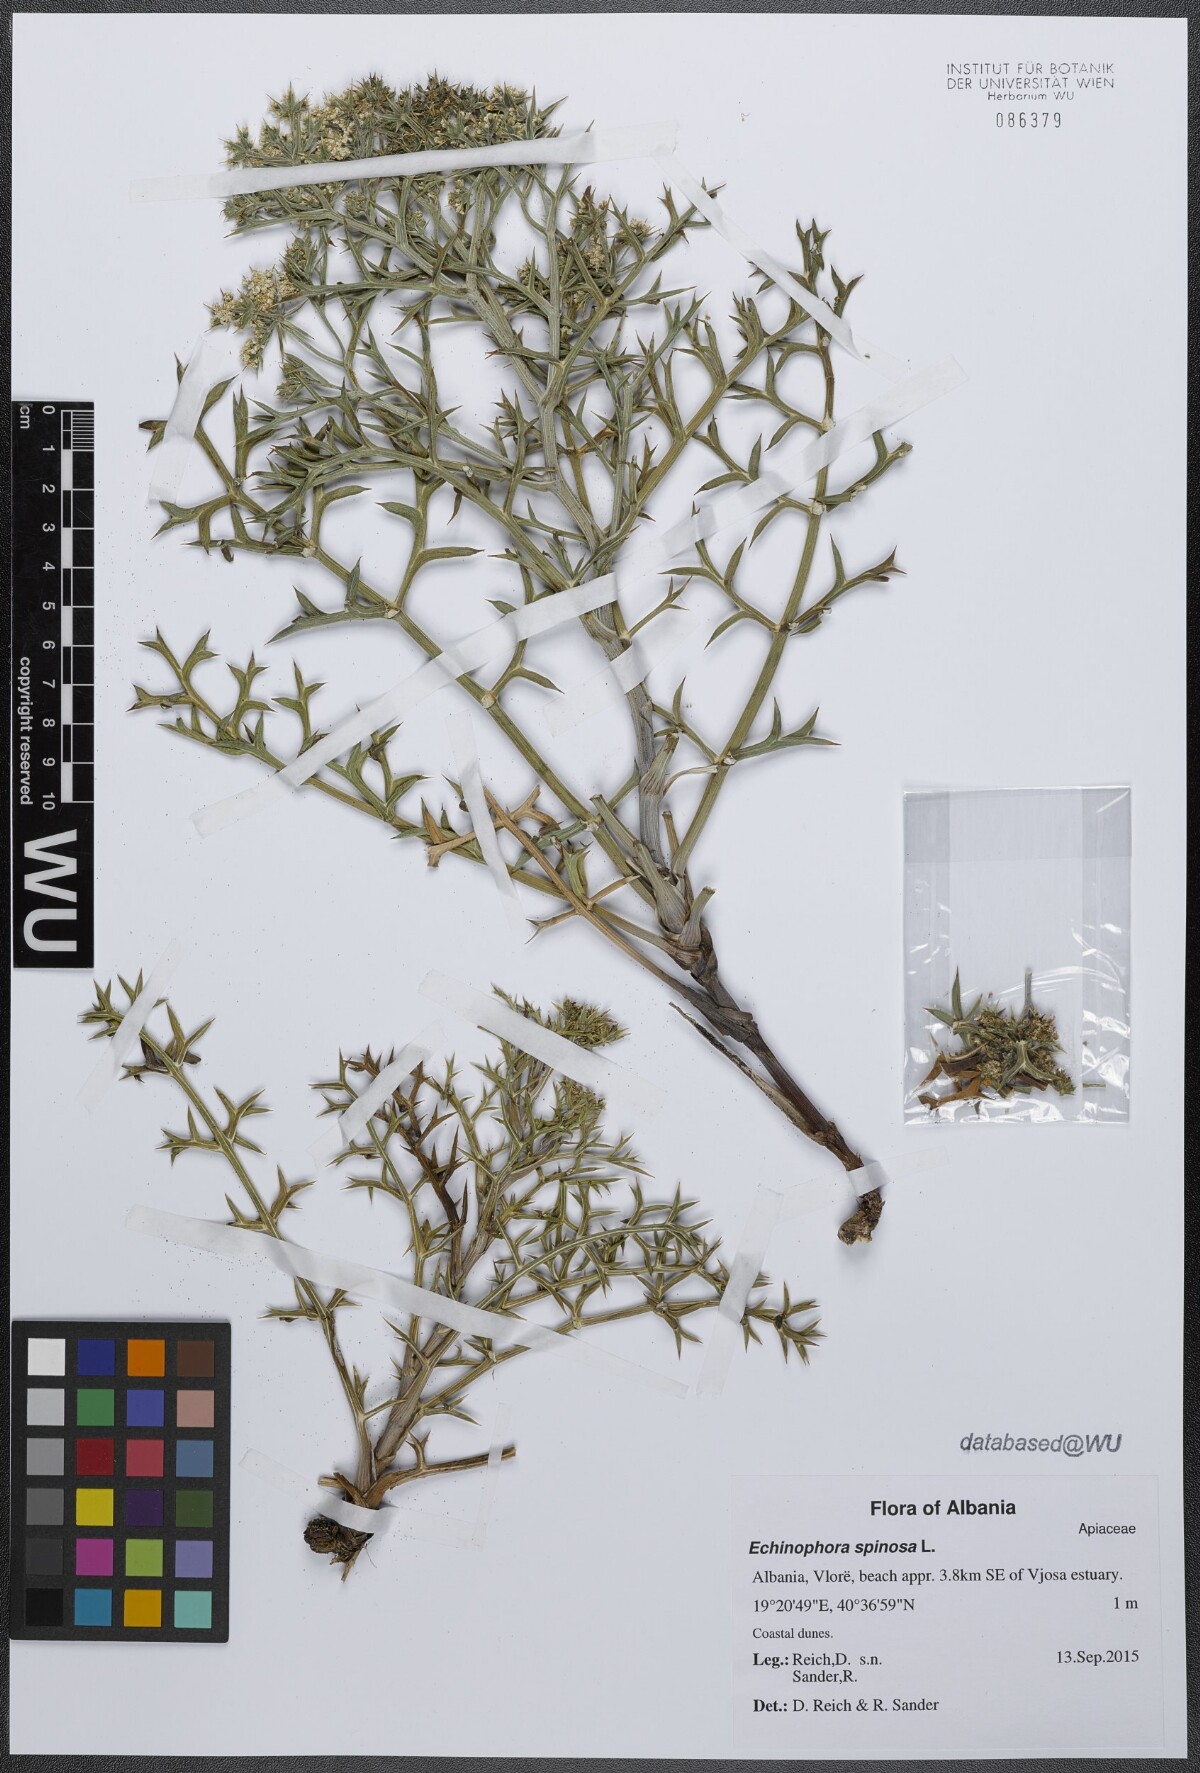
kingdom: Plantae
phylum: Tracheophyta
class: Magnoliopsida
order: Apiales
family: Apiaceae
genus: Echinophora
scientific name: Echinophora spinosa
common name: Prickly samphire
